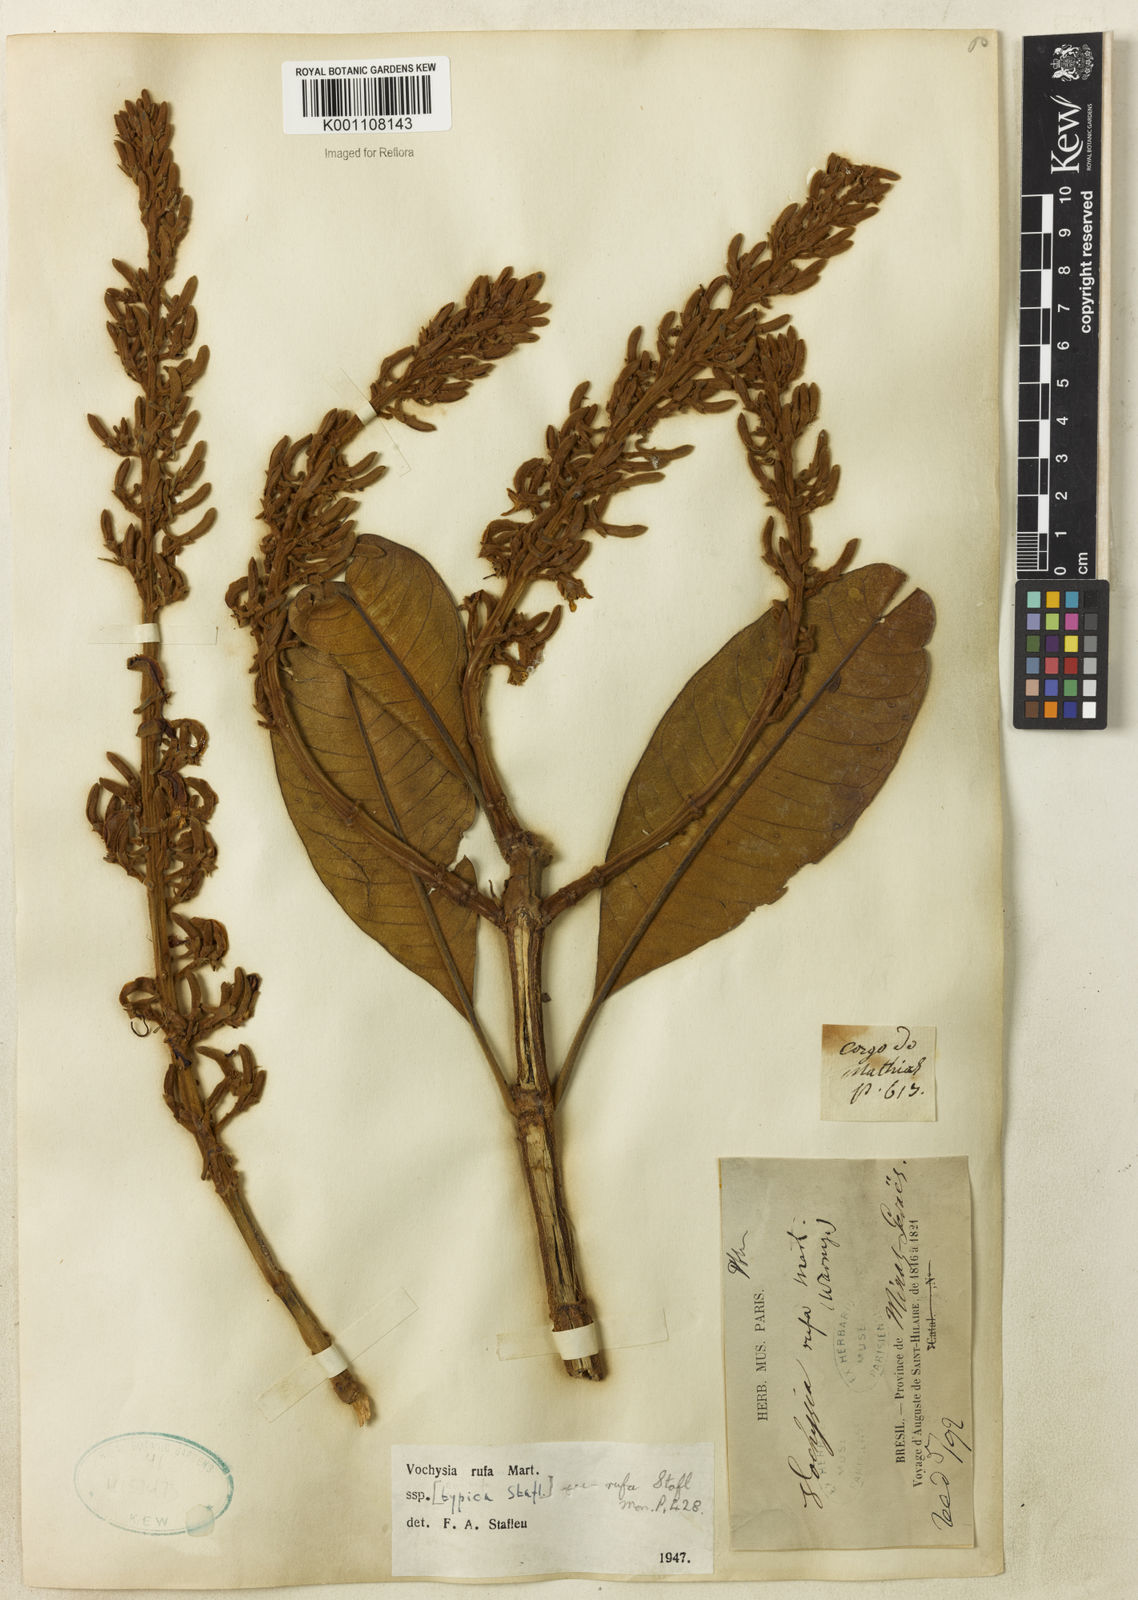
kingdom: Plantae
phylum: Tracheophyta
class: Magnoliopsida
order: Myrtales
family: Vochysiaceae
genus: Vochysia
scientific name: Vochysia rufa
